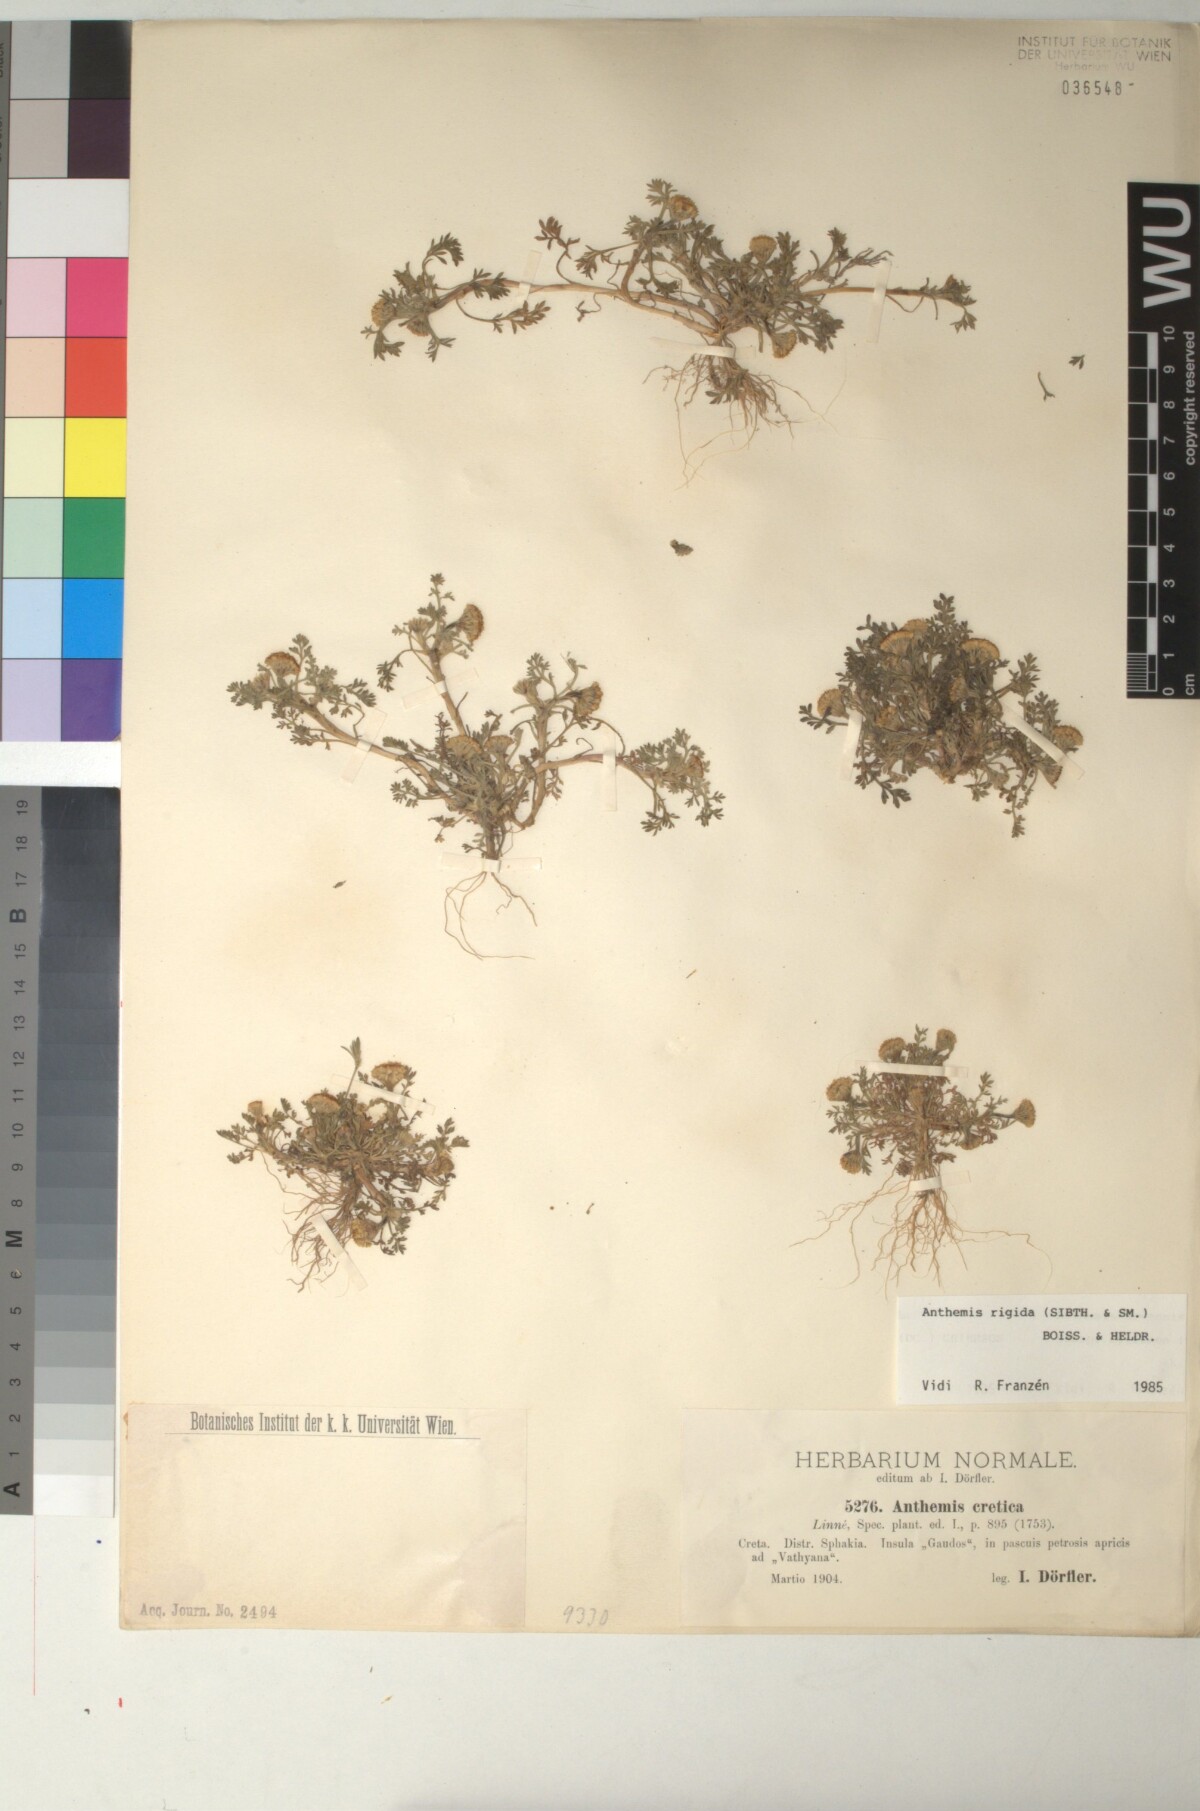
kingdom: Plantae
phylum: Tracheophyta
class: Magnoliopsida
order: Asterales
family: Asteraceae
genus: Anthemis
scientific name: Anthemis rigida
